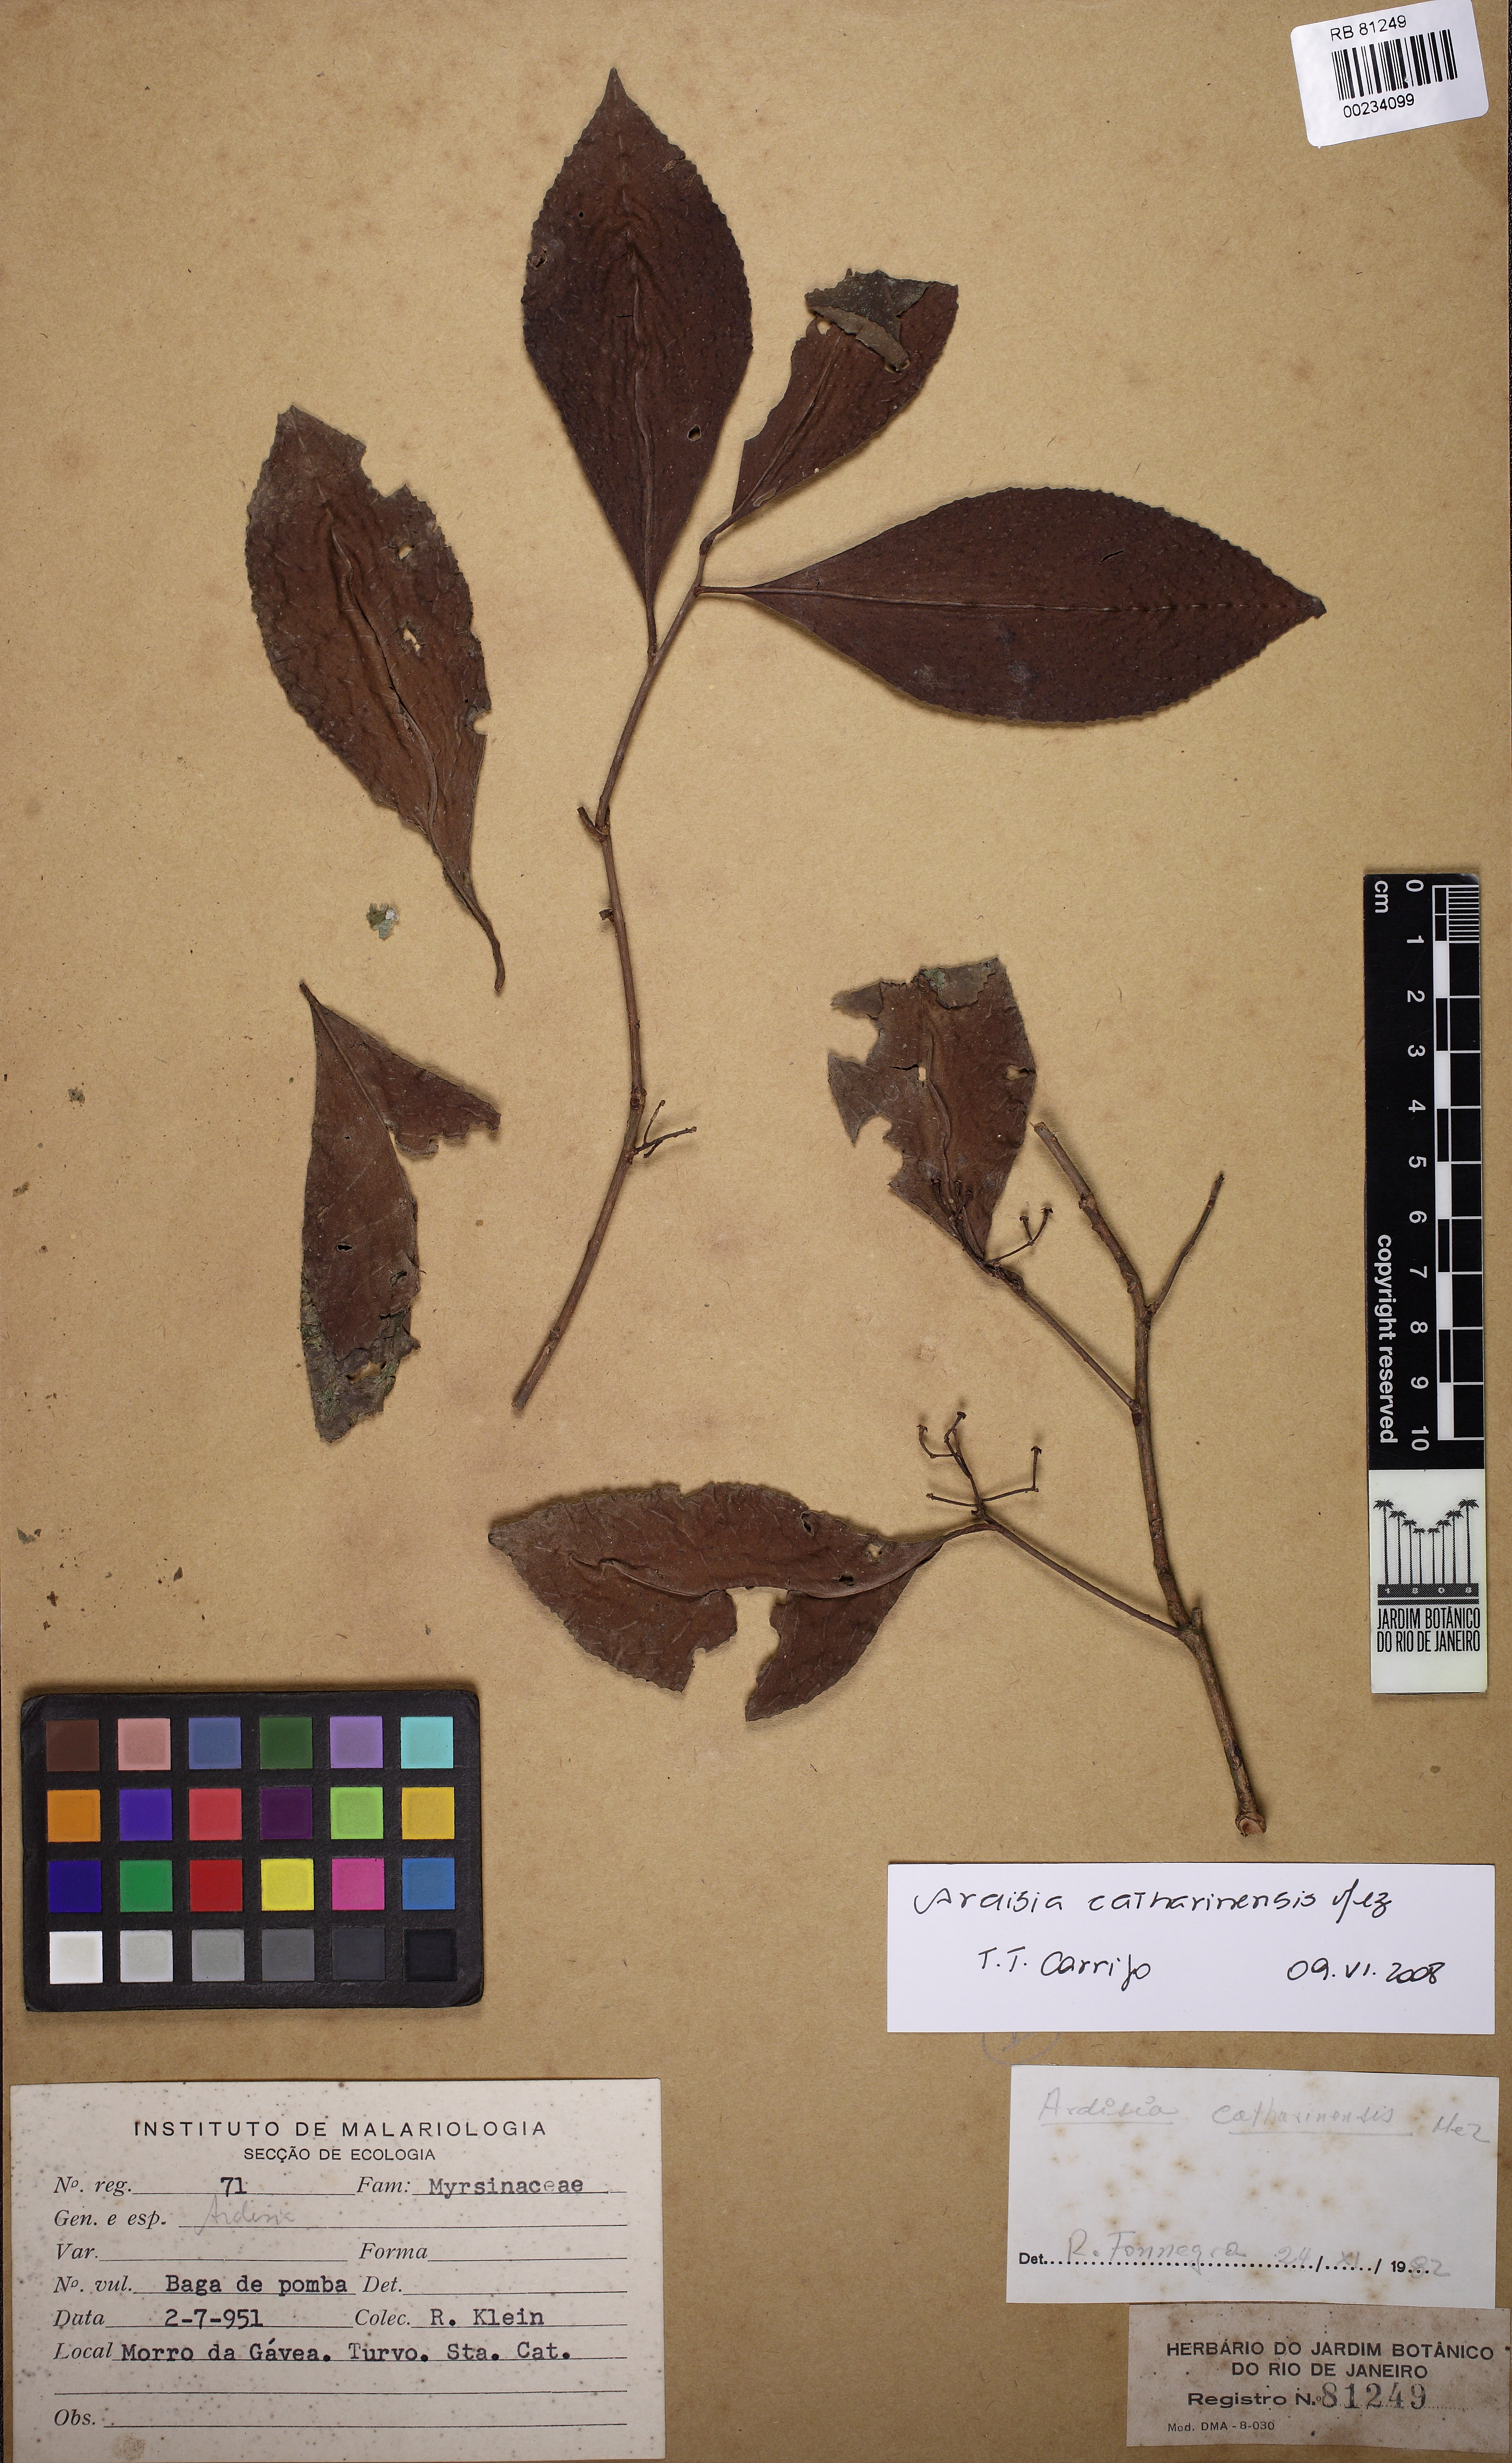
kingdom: Plantae
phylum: Tracheophyta
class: Magnoliopsida
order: Ericales
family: Primulaceae
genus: Ardisia
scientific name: Ardisia catharinensis
